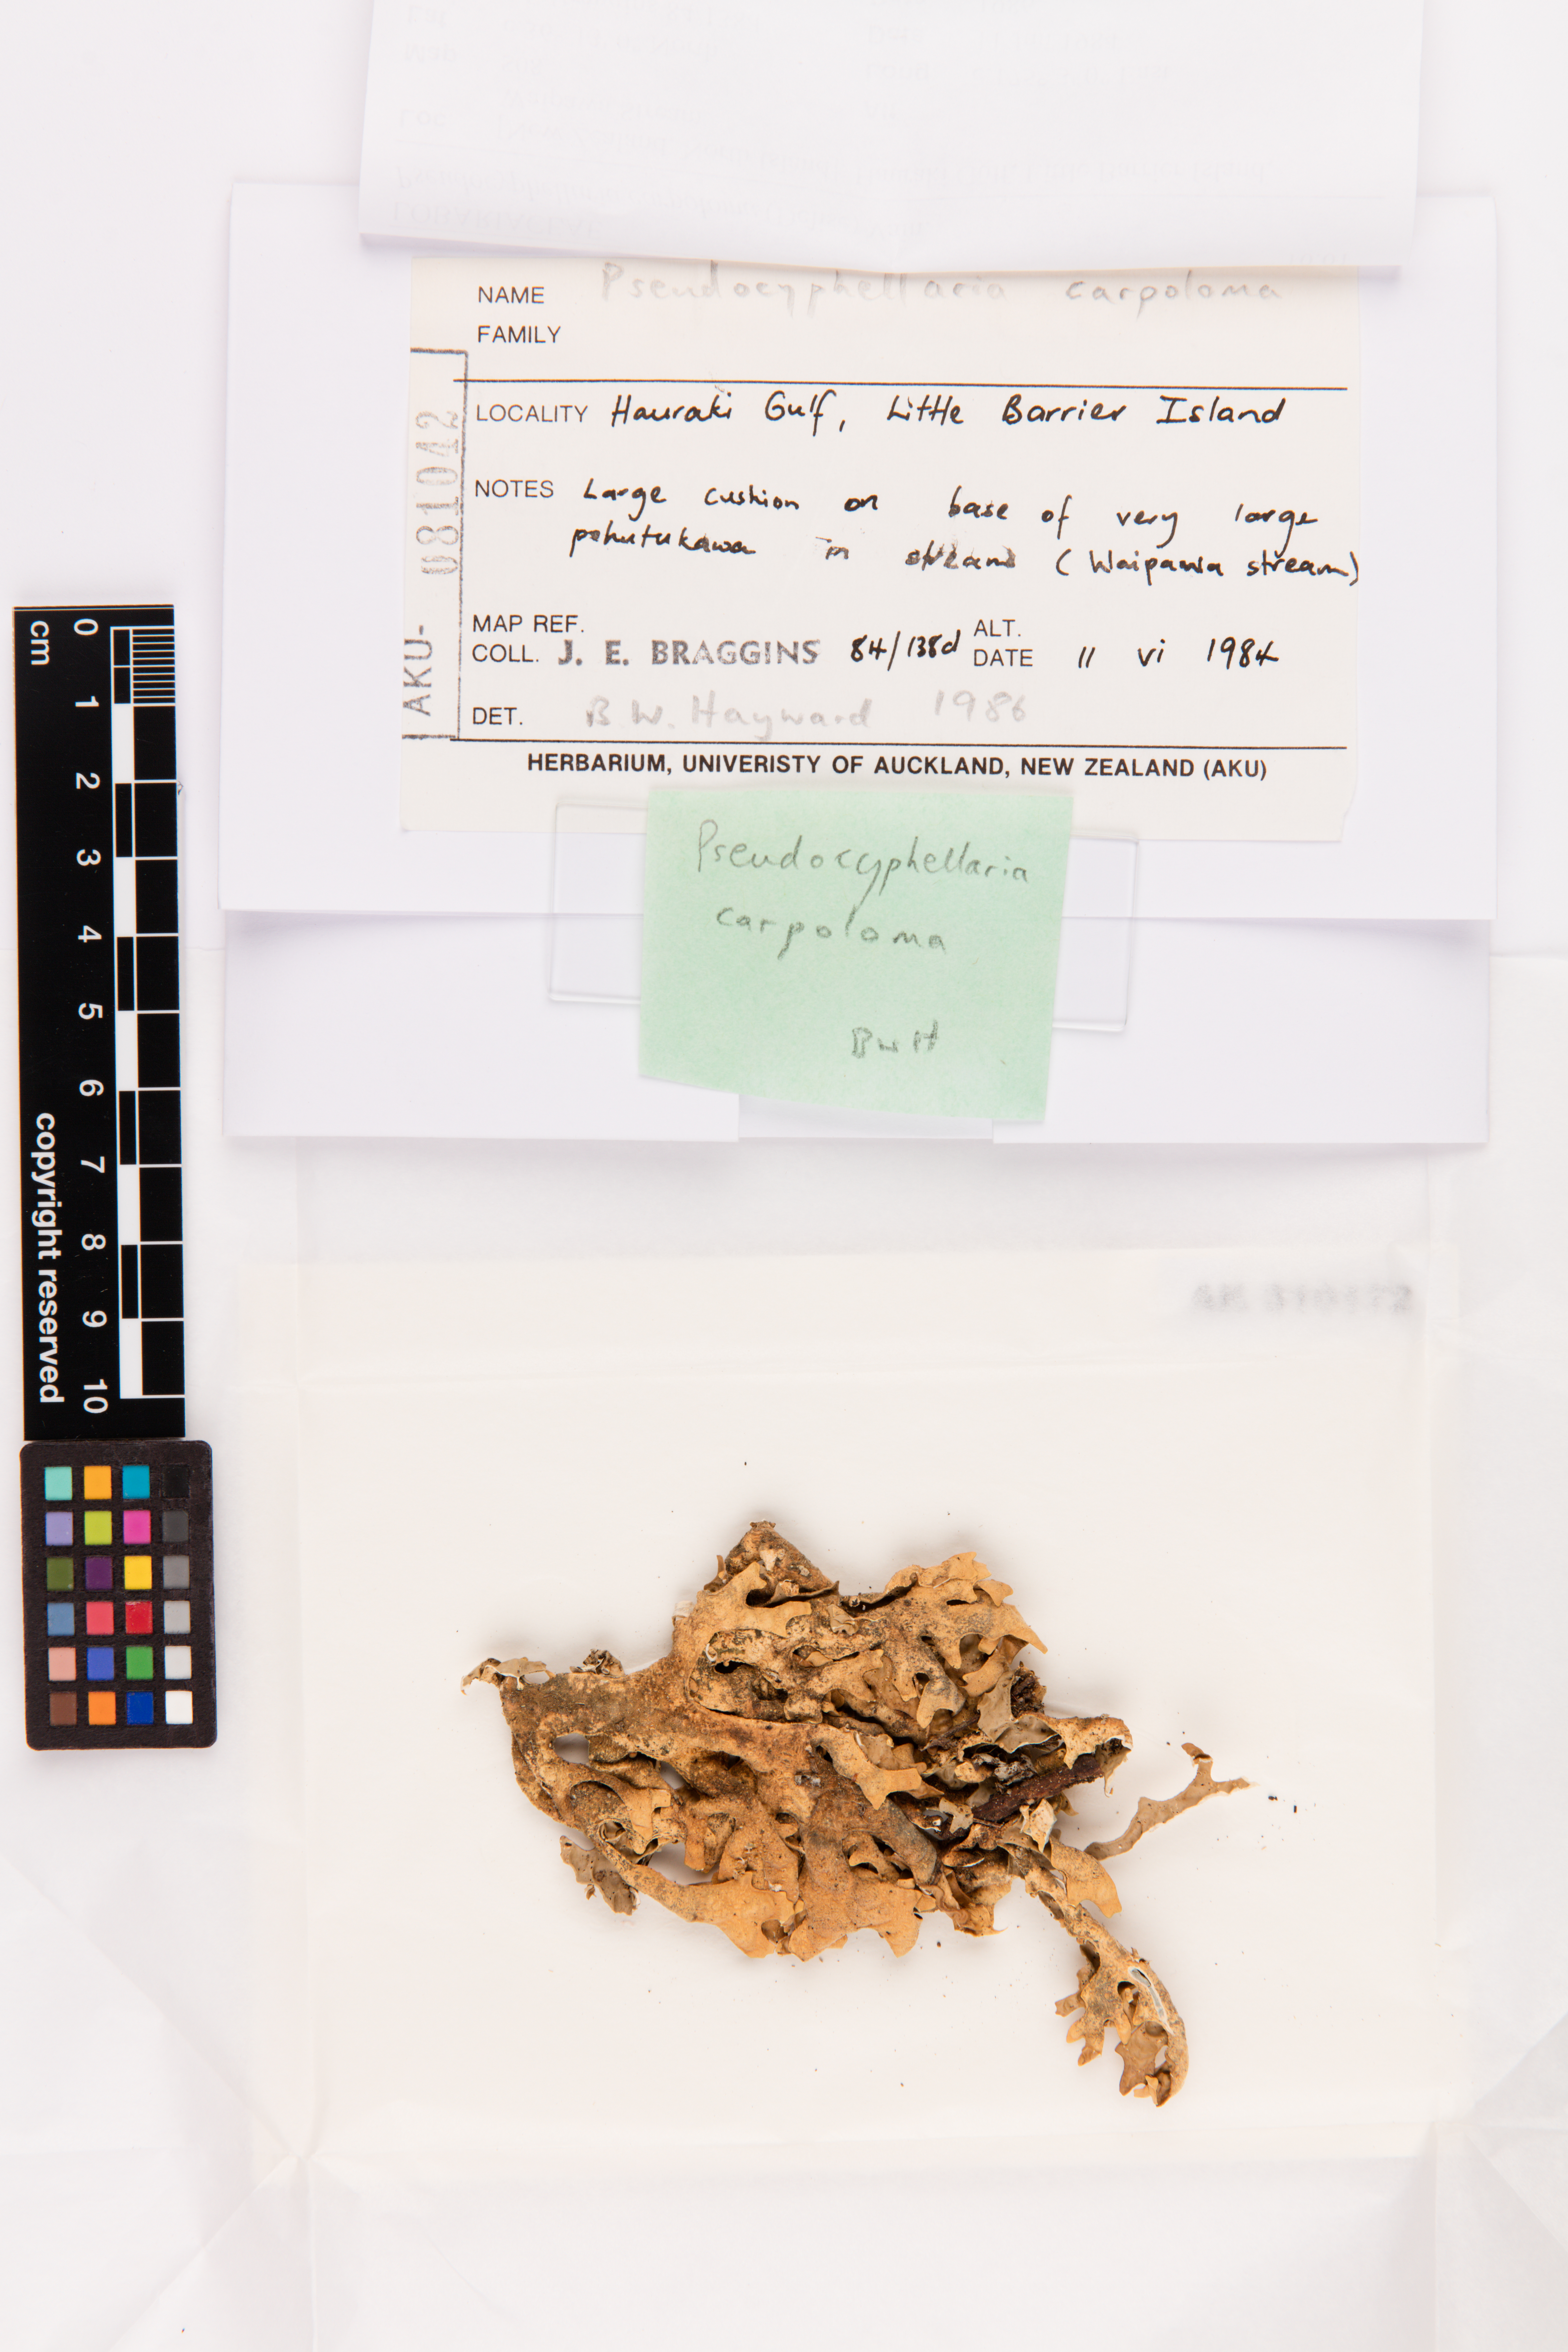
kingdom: Fungi
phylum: Ascomycota
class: Lecanoromycetes
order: Peltigerales
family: Lobariaceae
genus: Pseudocyphellaria
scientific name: Pseudocyphellaria carpoloma
